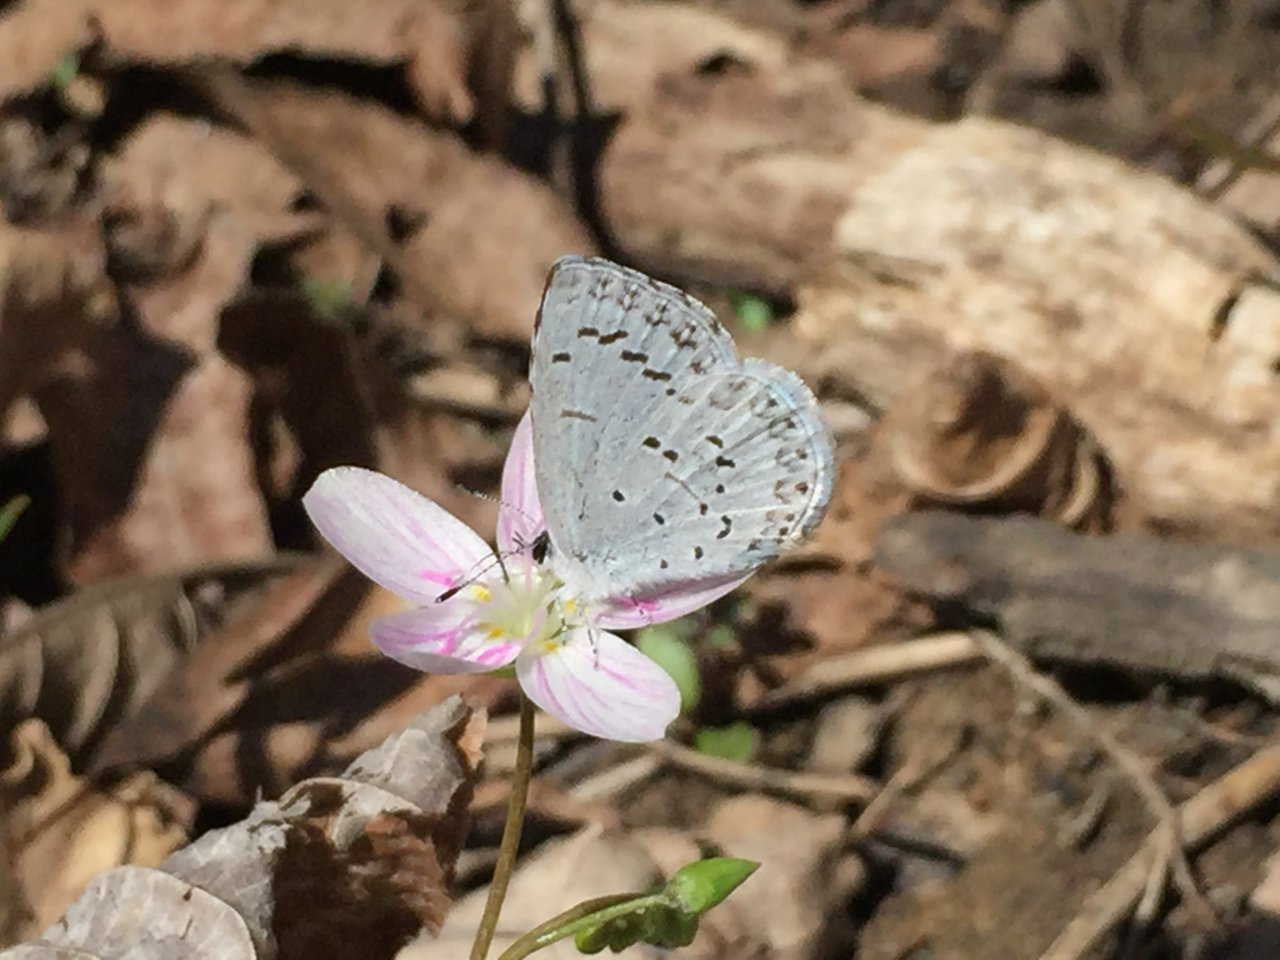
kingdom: Animalia
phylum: Arthropoda
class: Insecta
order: Lepidoptera
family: Lycaenidae
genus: Celastrina
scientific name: Celastrina ladon
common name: Spring Azure
